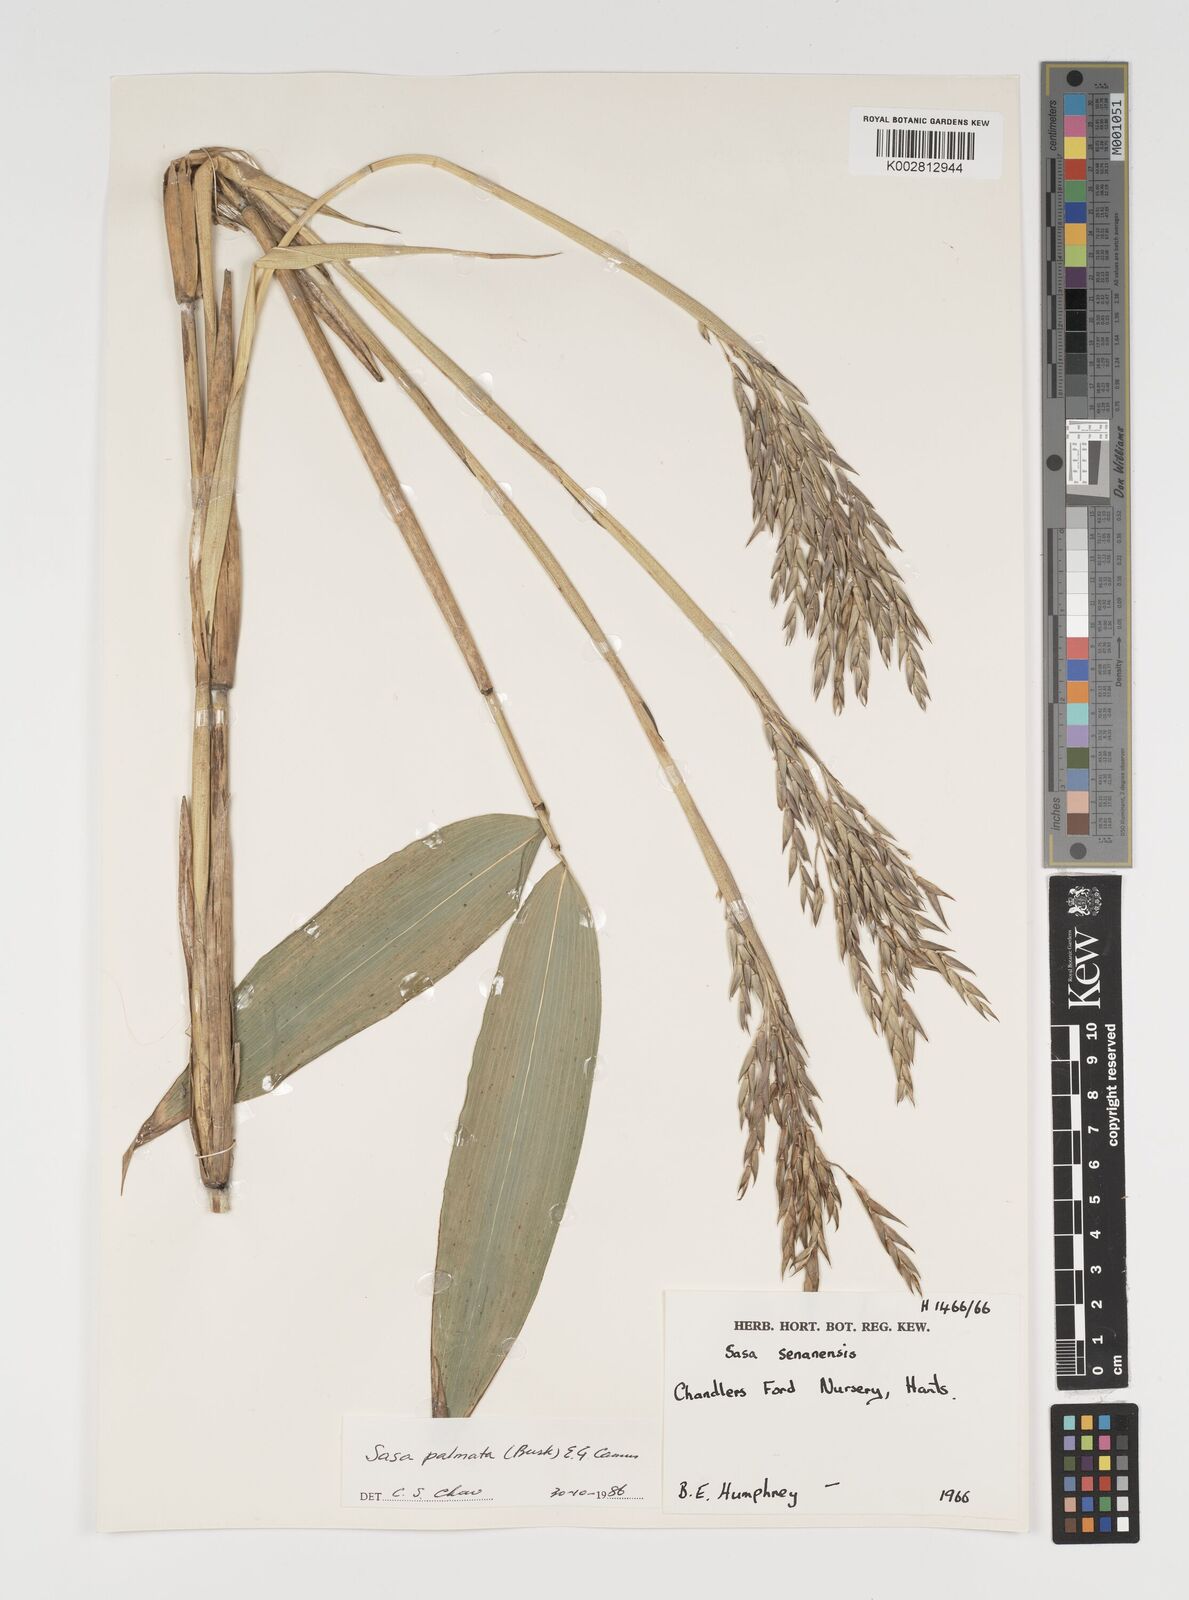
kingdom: Plantae
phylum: Tracheophyta
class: Liliopsida
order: Poales
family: Poaceae
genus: Sasa
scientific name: Sasa palmata
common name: Broad-leaved bamboo
